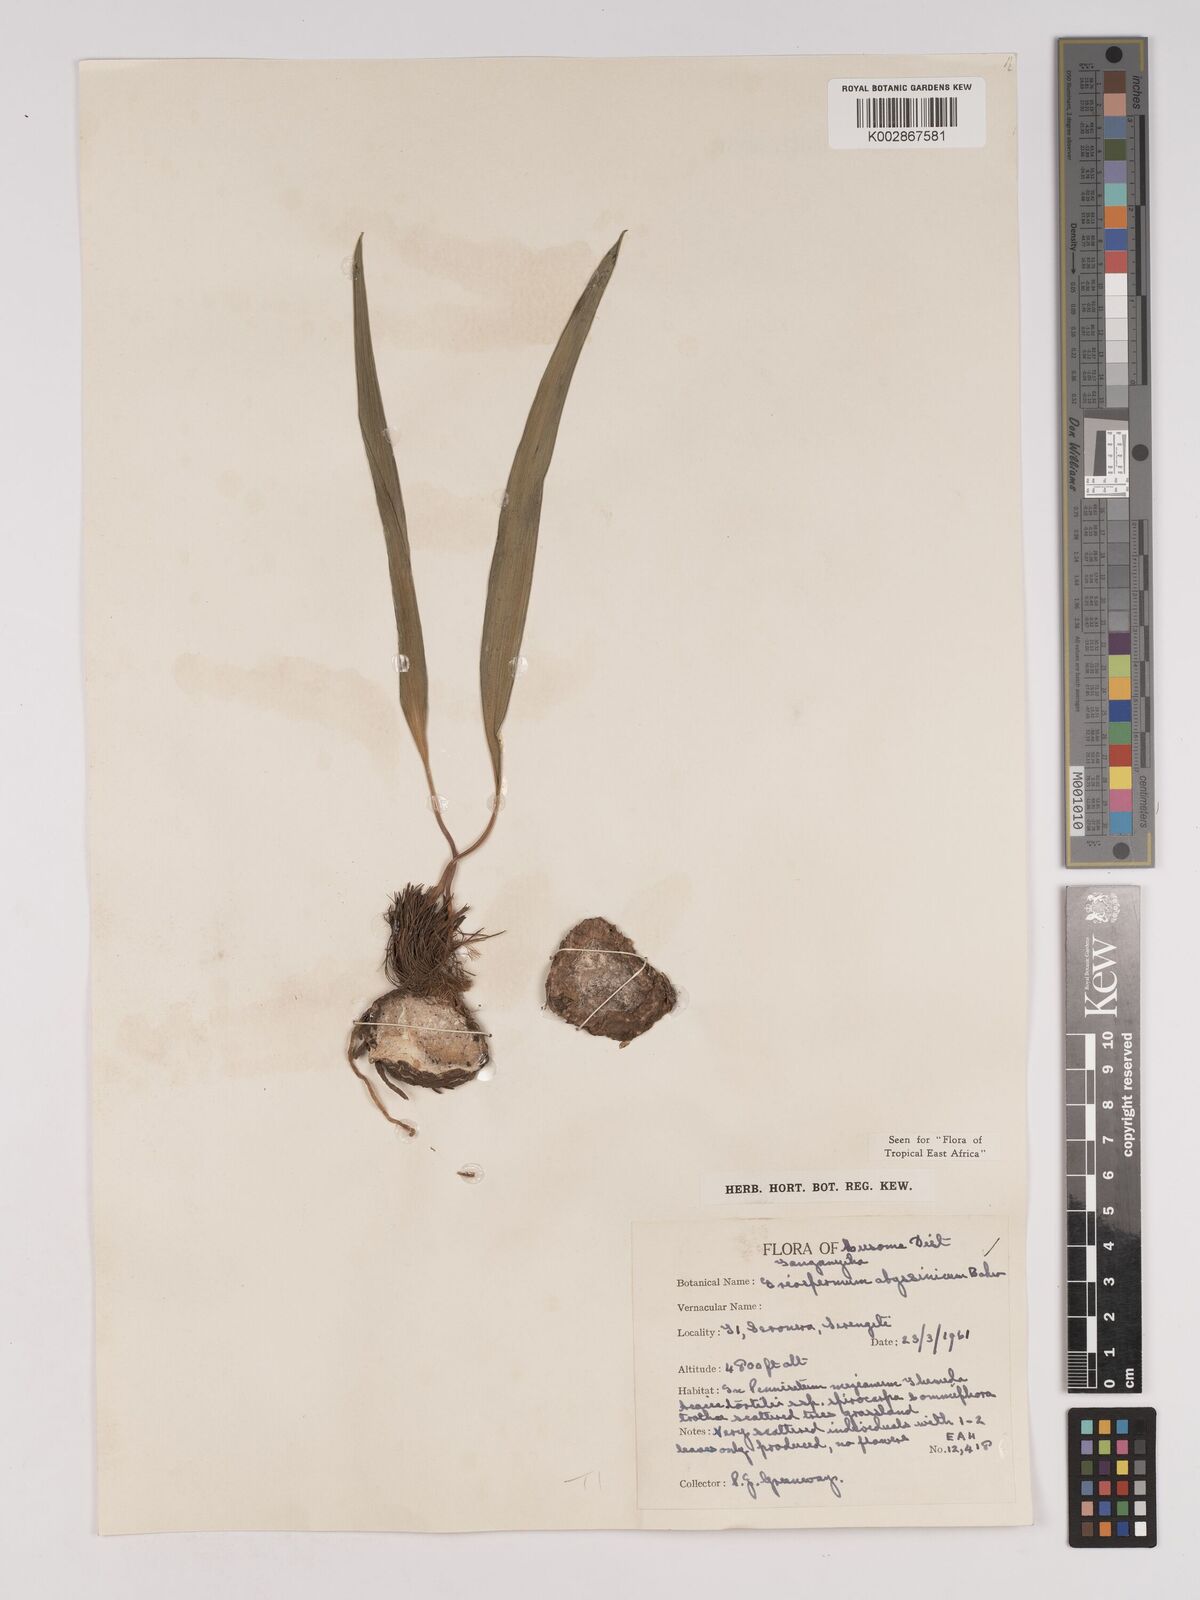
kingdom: Plantae
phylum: Tracheophyta
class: Liliopsida
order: Asparagales
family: Asparagaceae
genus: Eriospermum
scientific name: Eriospermum abyssinicum
